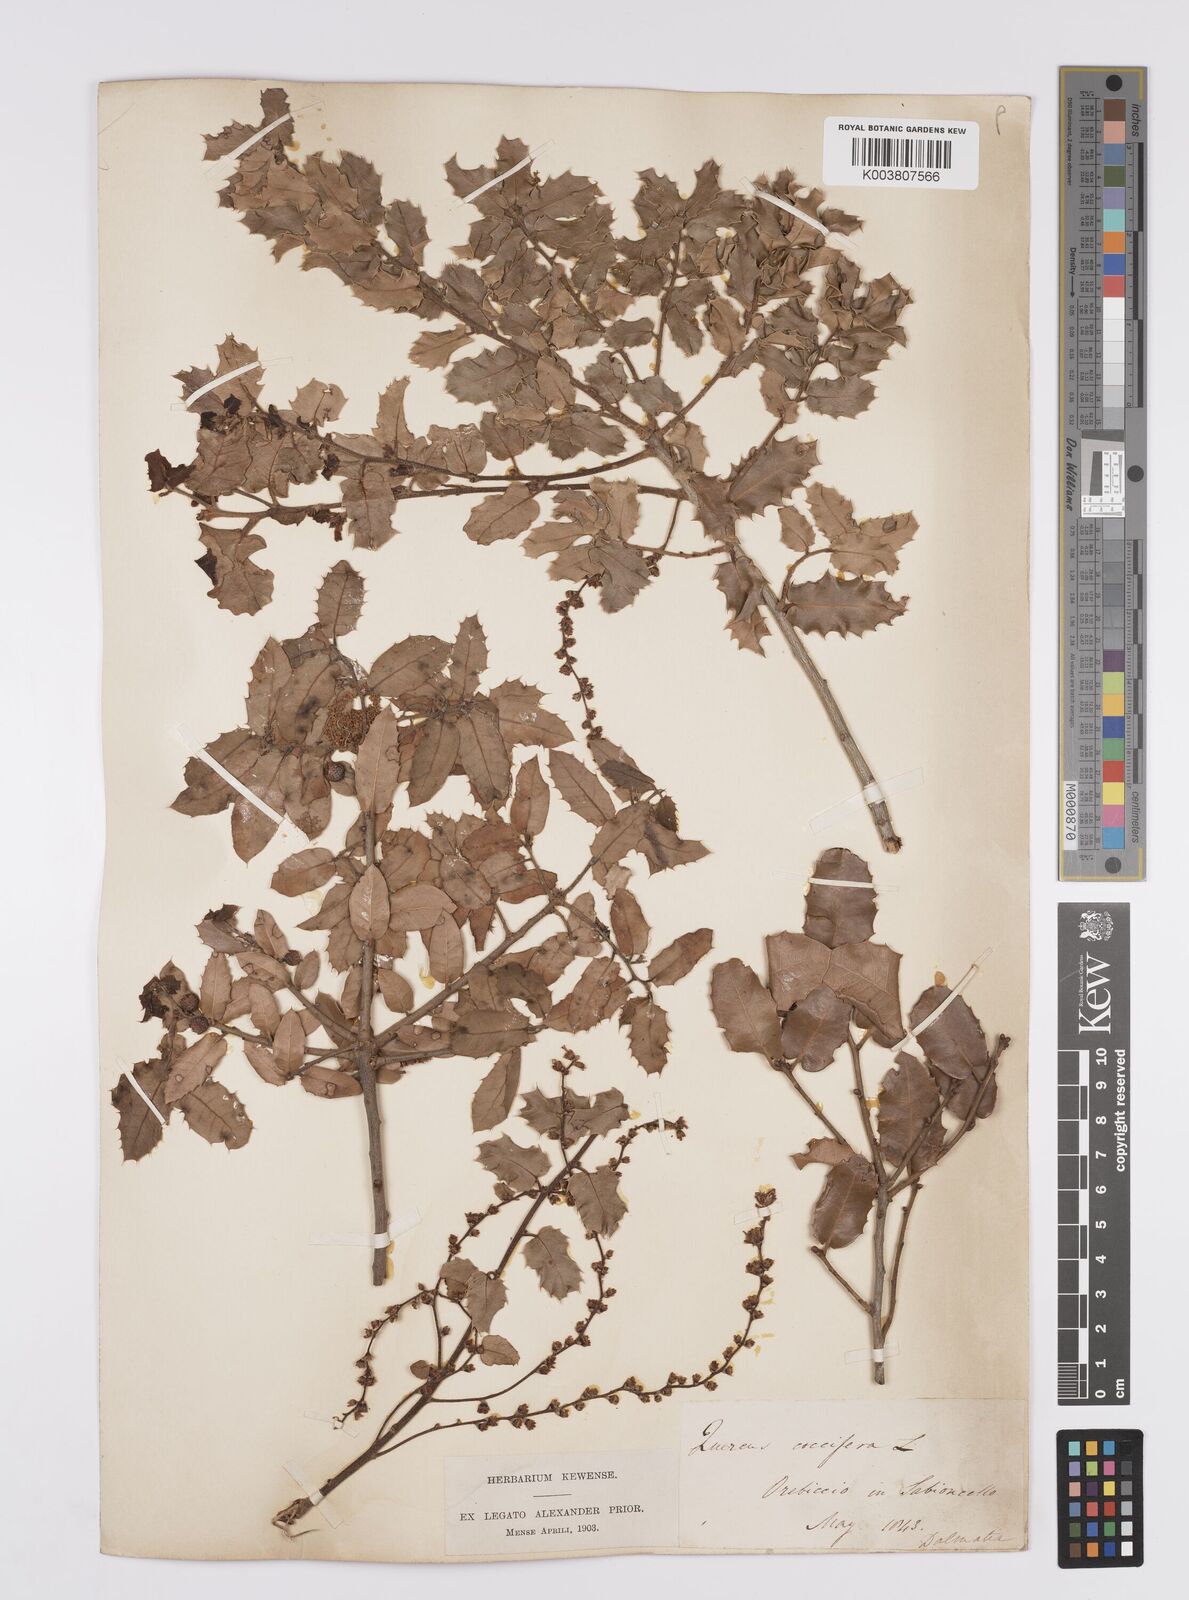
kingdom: Plantae
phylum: Tracheophyta
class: Magnoliopsida
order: Fagales
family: Fagaceae
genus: Quercus
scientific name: Quercus coccifera
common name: Kermes oak
